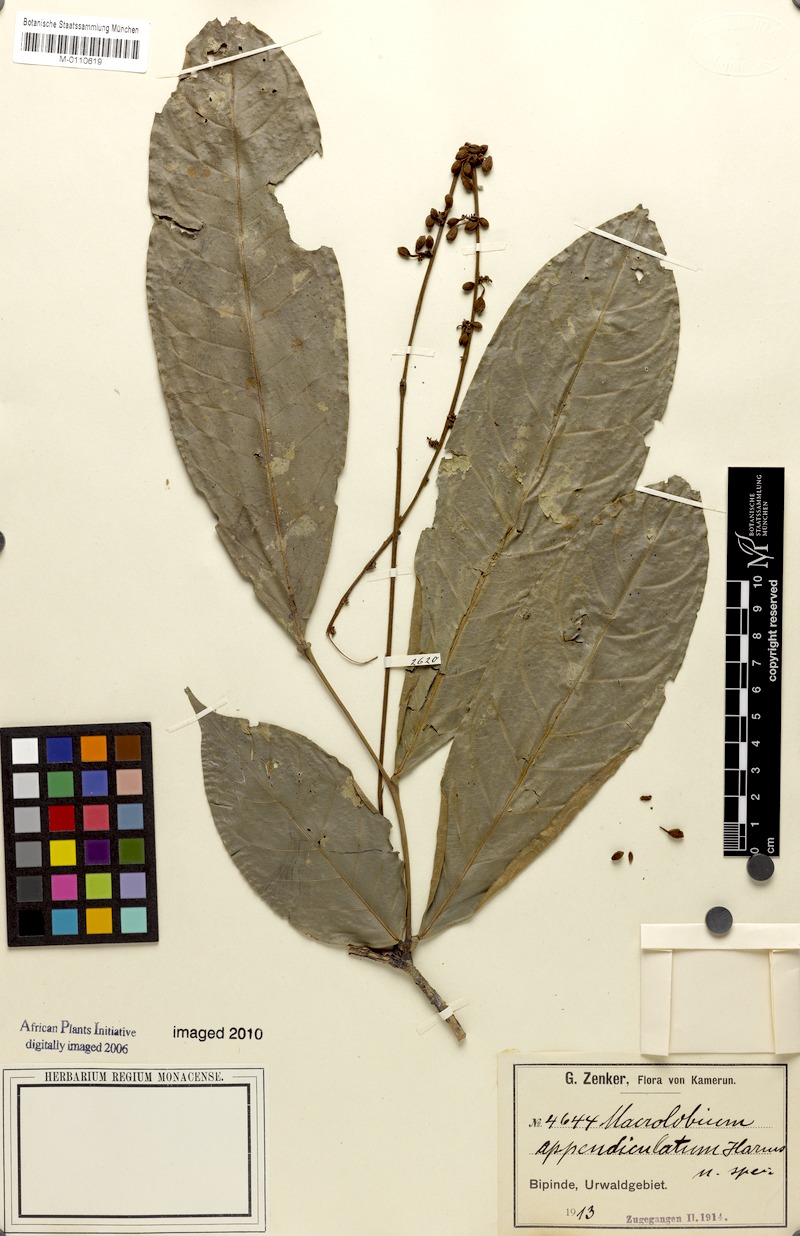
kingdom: Plantae
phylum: Tracheophyta
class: Magnoliopsida
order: Fabales
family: Fabaceae
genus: Macrolobium
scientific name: Macrolobium
